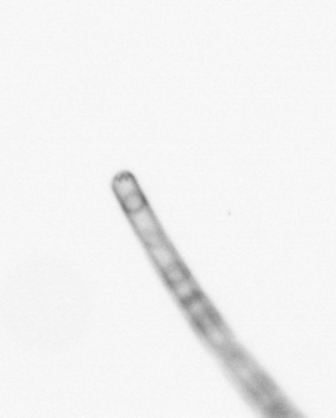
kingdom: Chromista
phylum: Ochrophyta
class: Bacillariophyceae
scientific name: Bacillariophyceae
